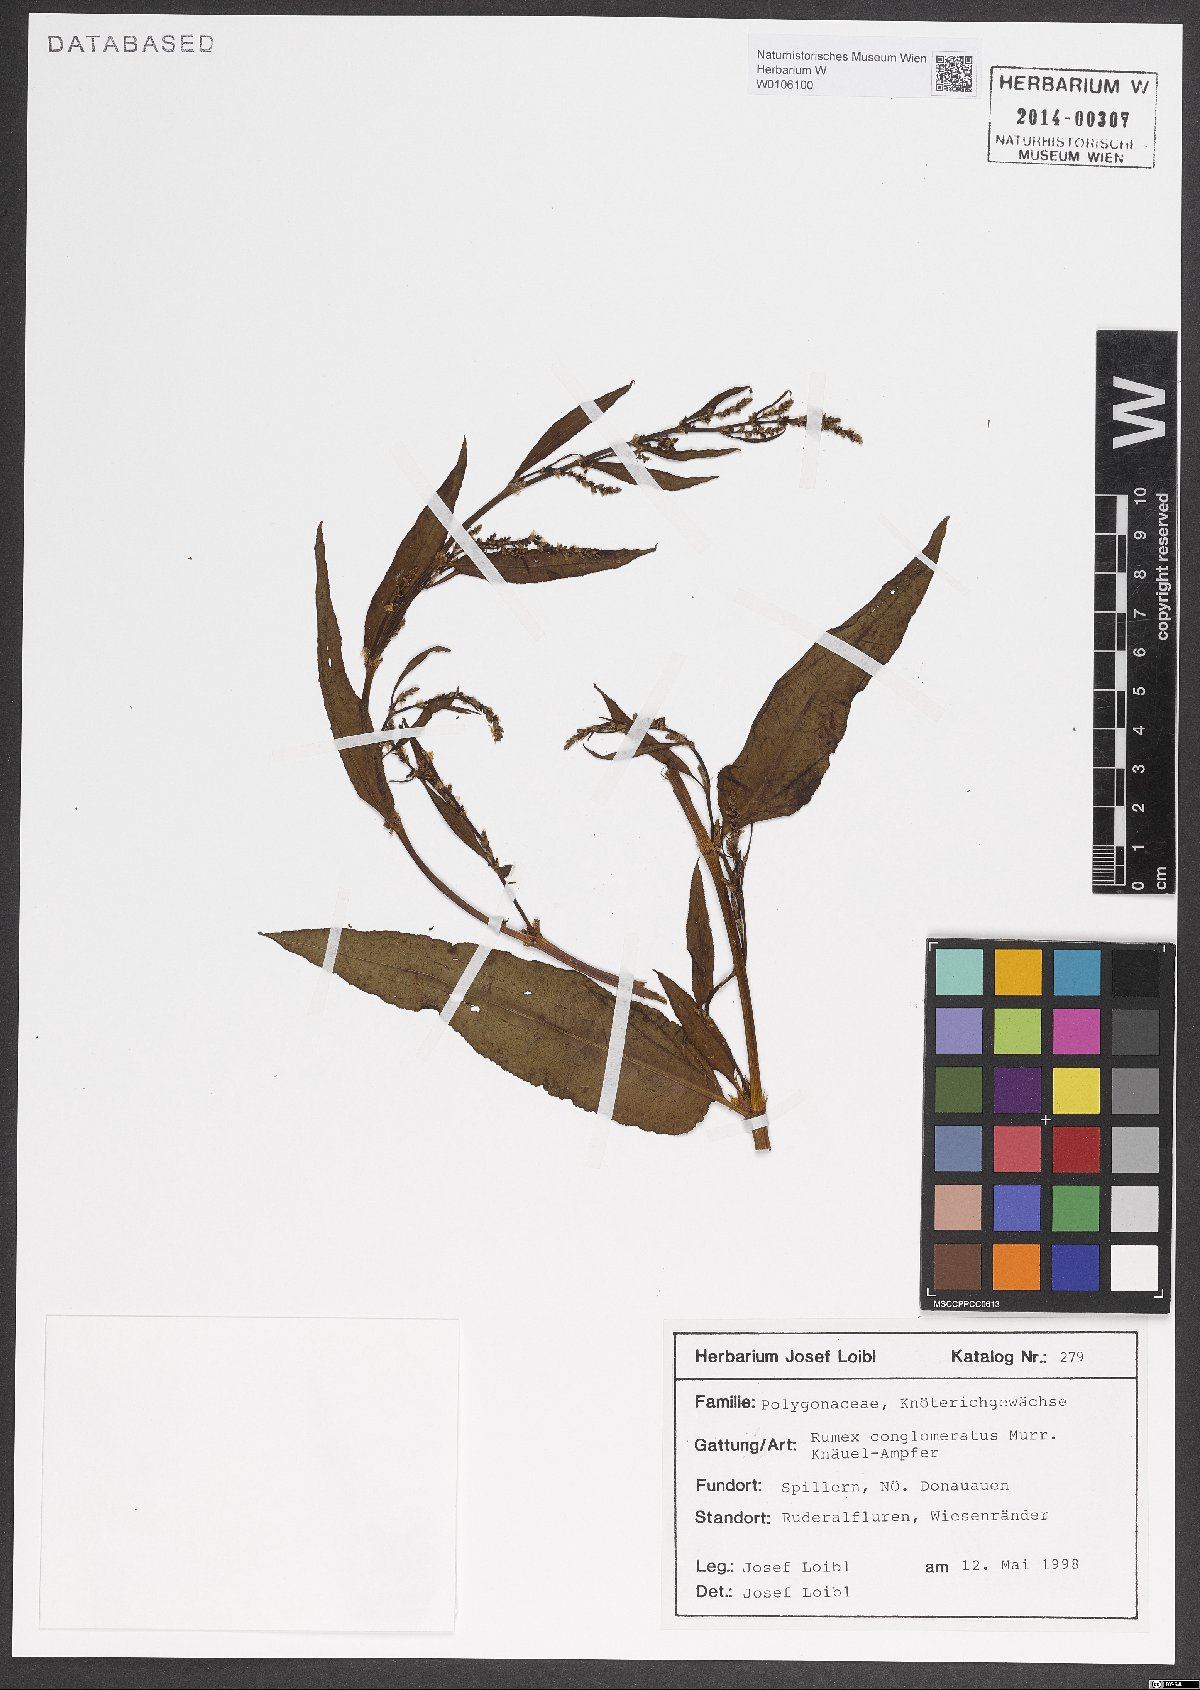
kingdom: Plantae
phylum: Tracheophyta
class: Magnoliopsida
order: Caryophyllales
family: Polygonaceae
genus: Rumex
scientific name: Rumex conglomeratus
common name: Clustered dock
